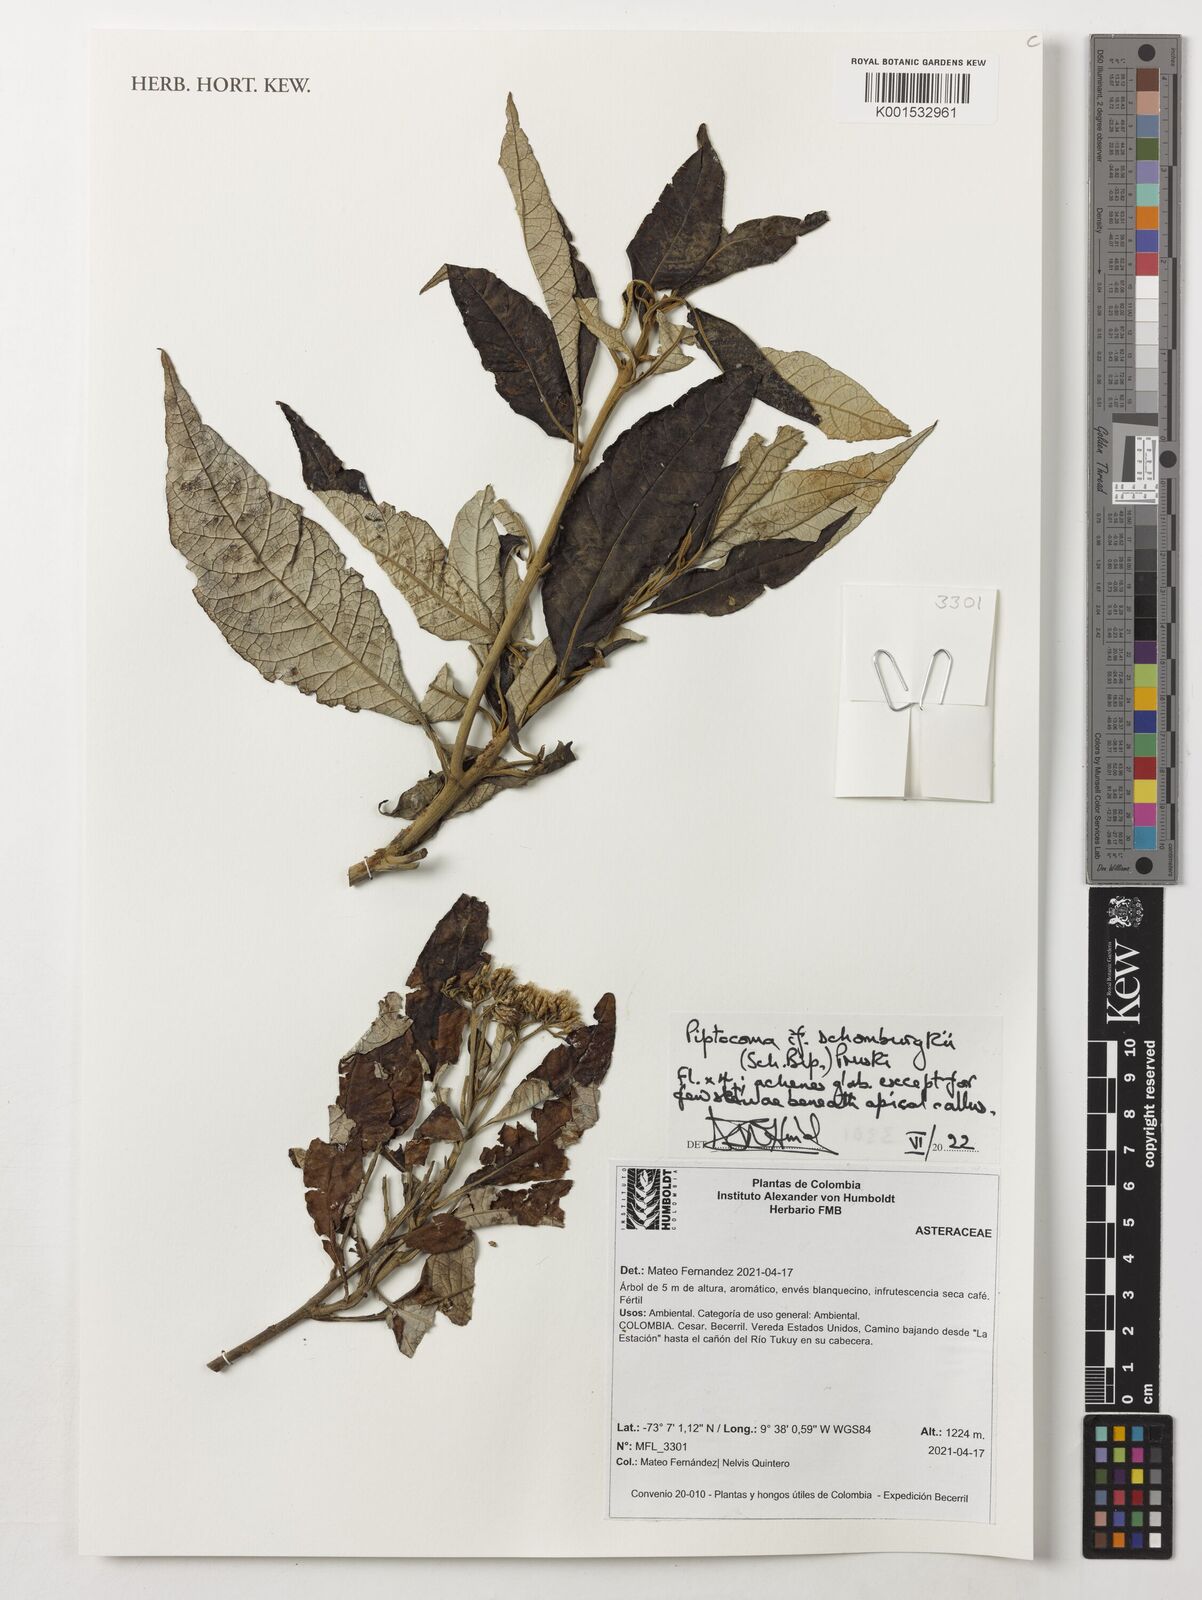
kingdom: Plantae
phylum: Tracheophyta
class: Magnoliopsida
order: Asterales
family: Asteraceae
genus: Piptocoma
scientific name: Piptocoma schomburgkii
